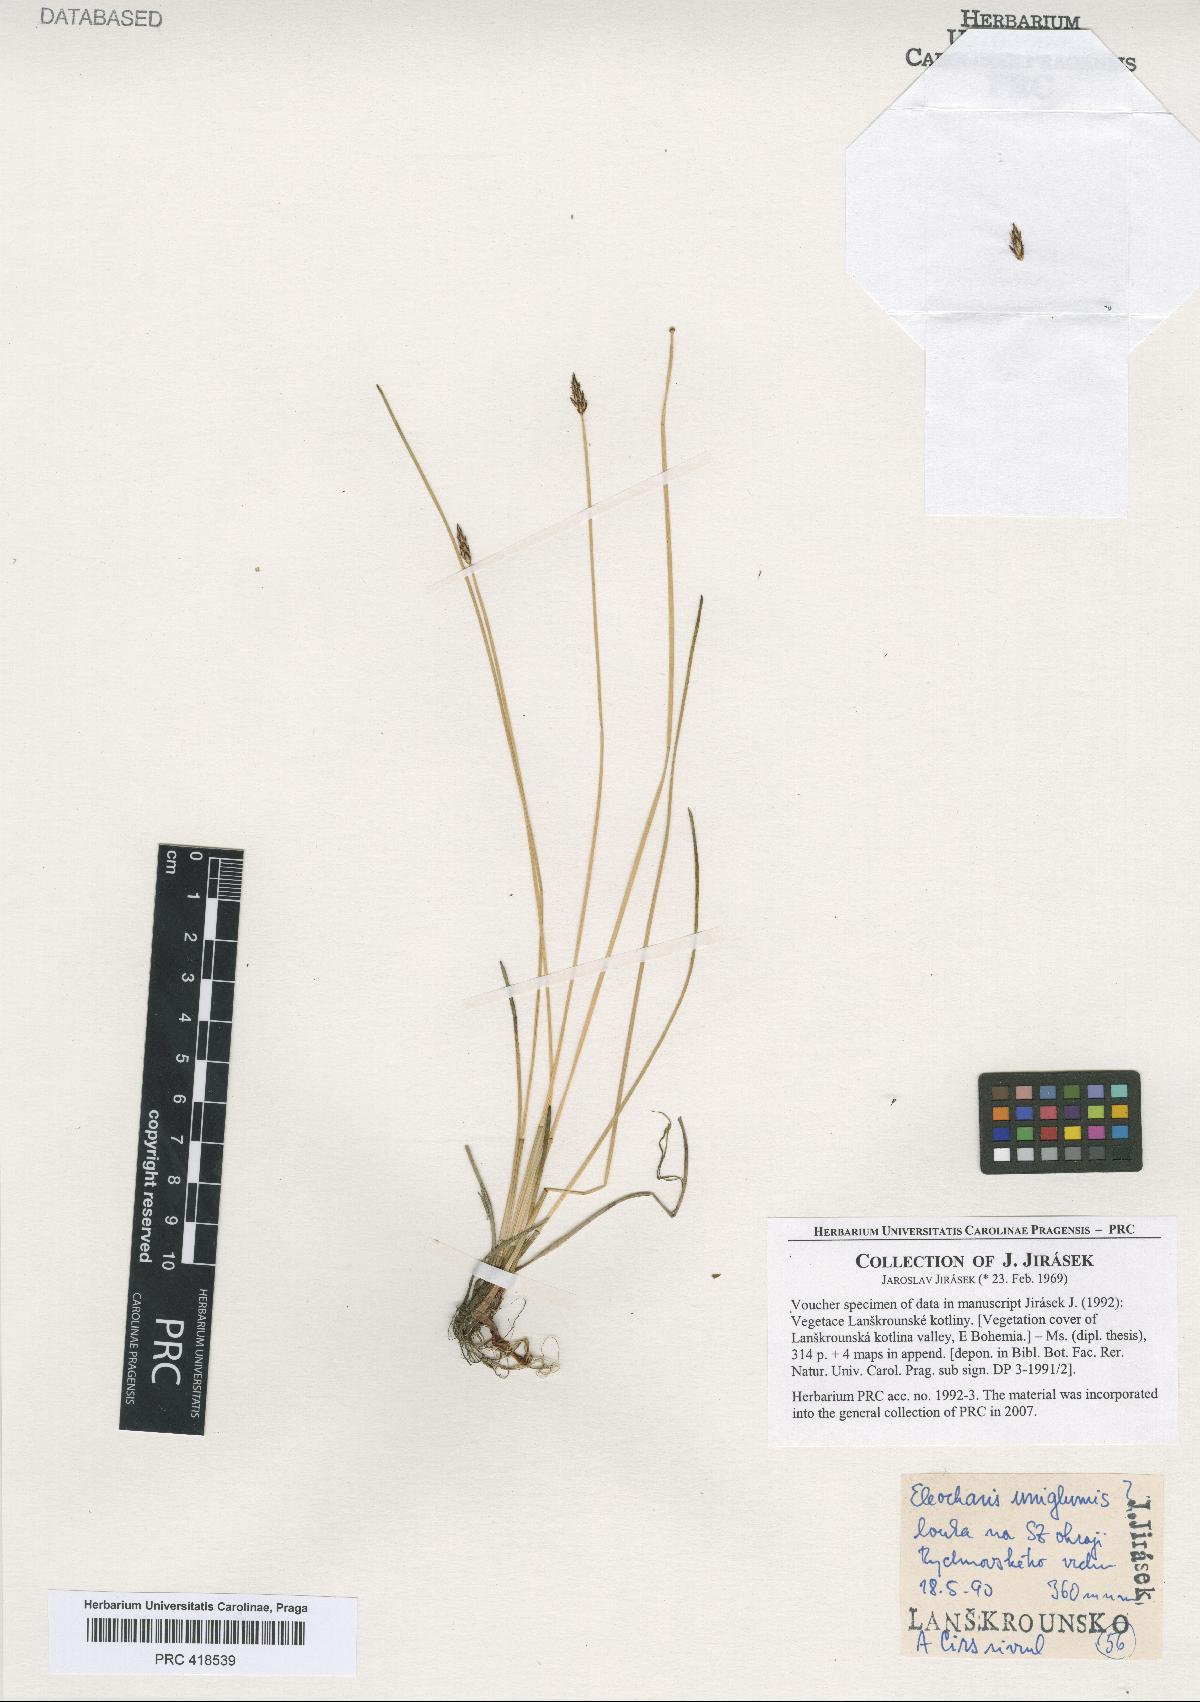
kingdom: Plantae
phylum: Tracheophyta
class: Liliopsida
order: Poales
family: Cyperaceae
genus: Eleocharis
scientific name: Eleocharis uniglumis
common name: Slender spike-rush
